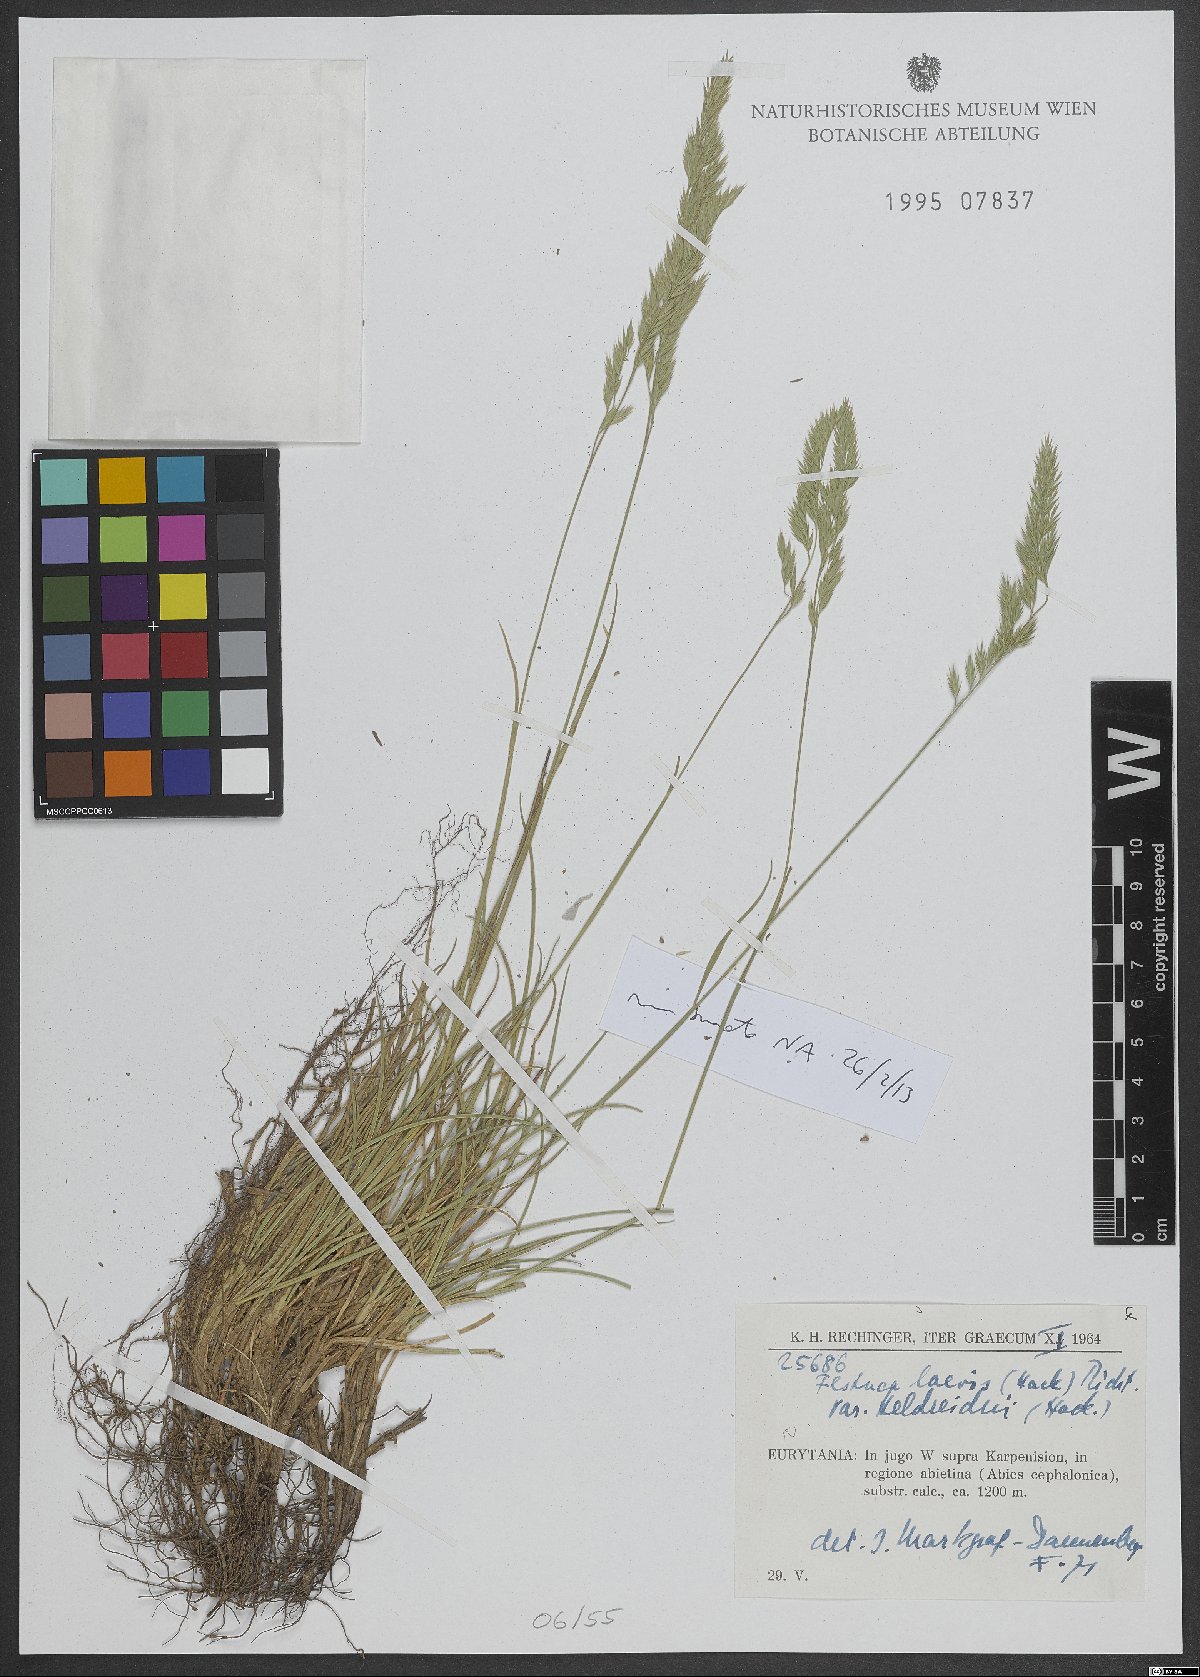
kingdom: Plantae
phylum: Tracheophyta
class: Liliopsida
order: Poales
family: Poaceae
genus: Festuca
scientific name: Festuca laevis
